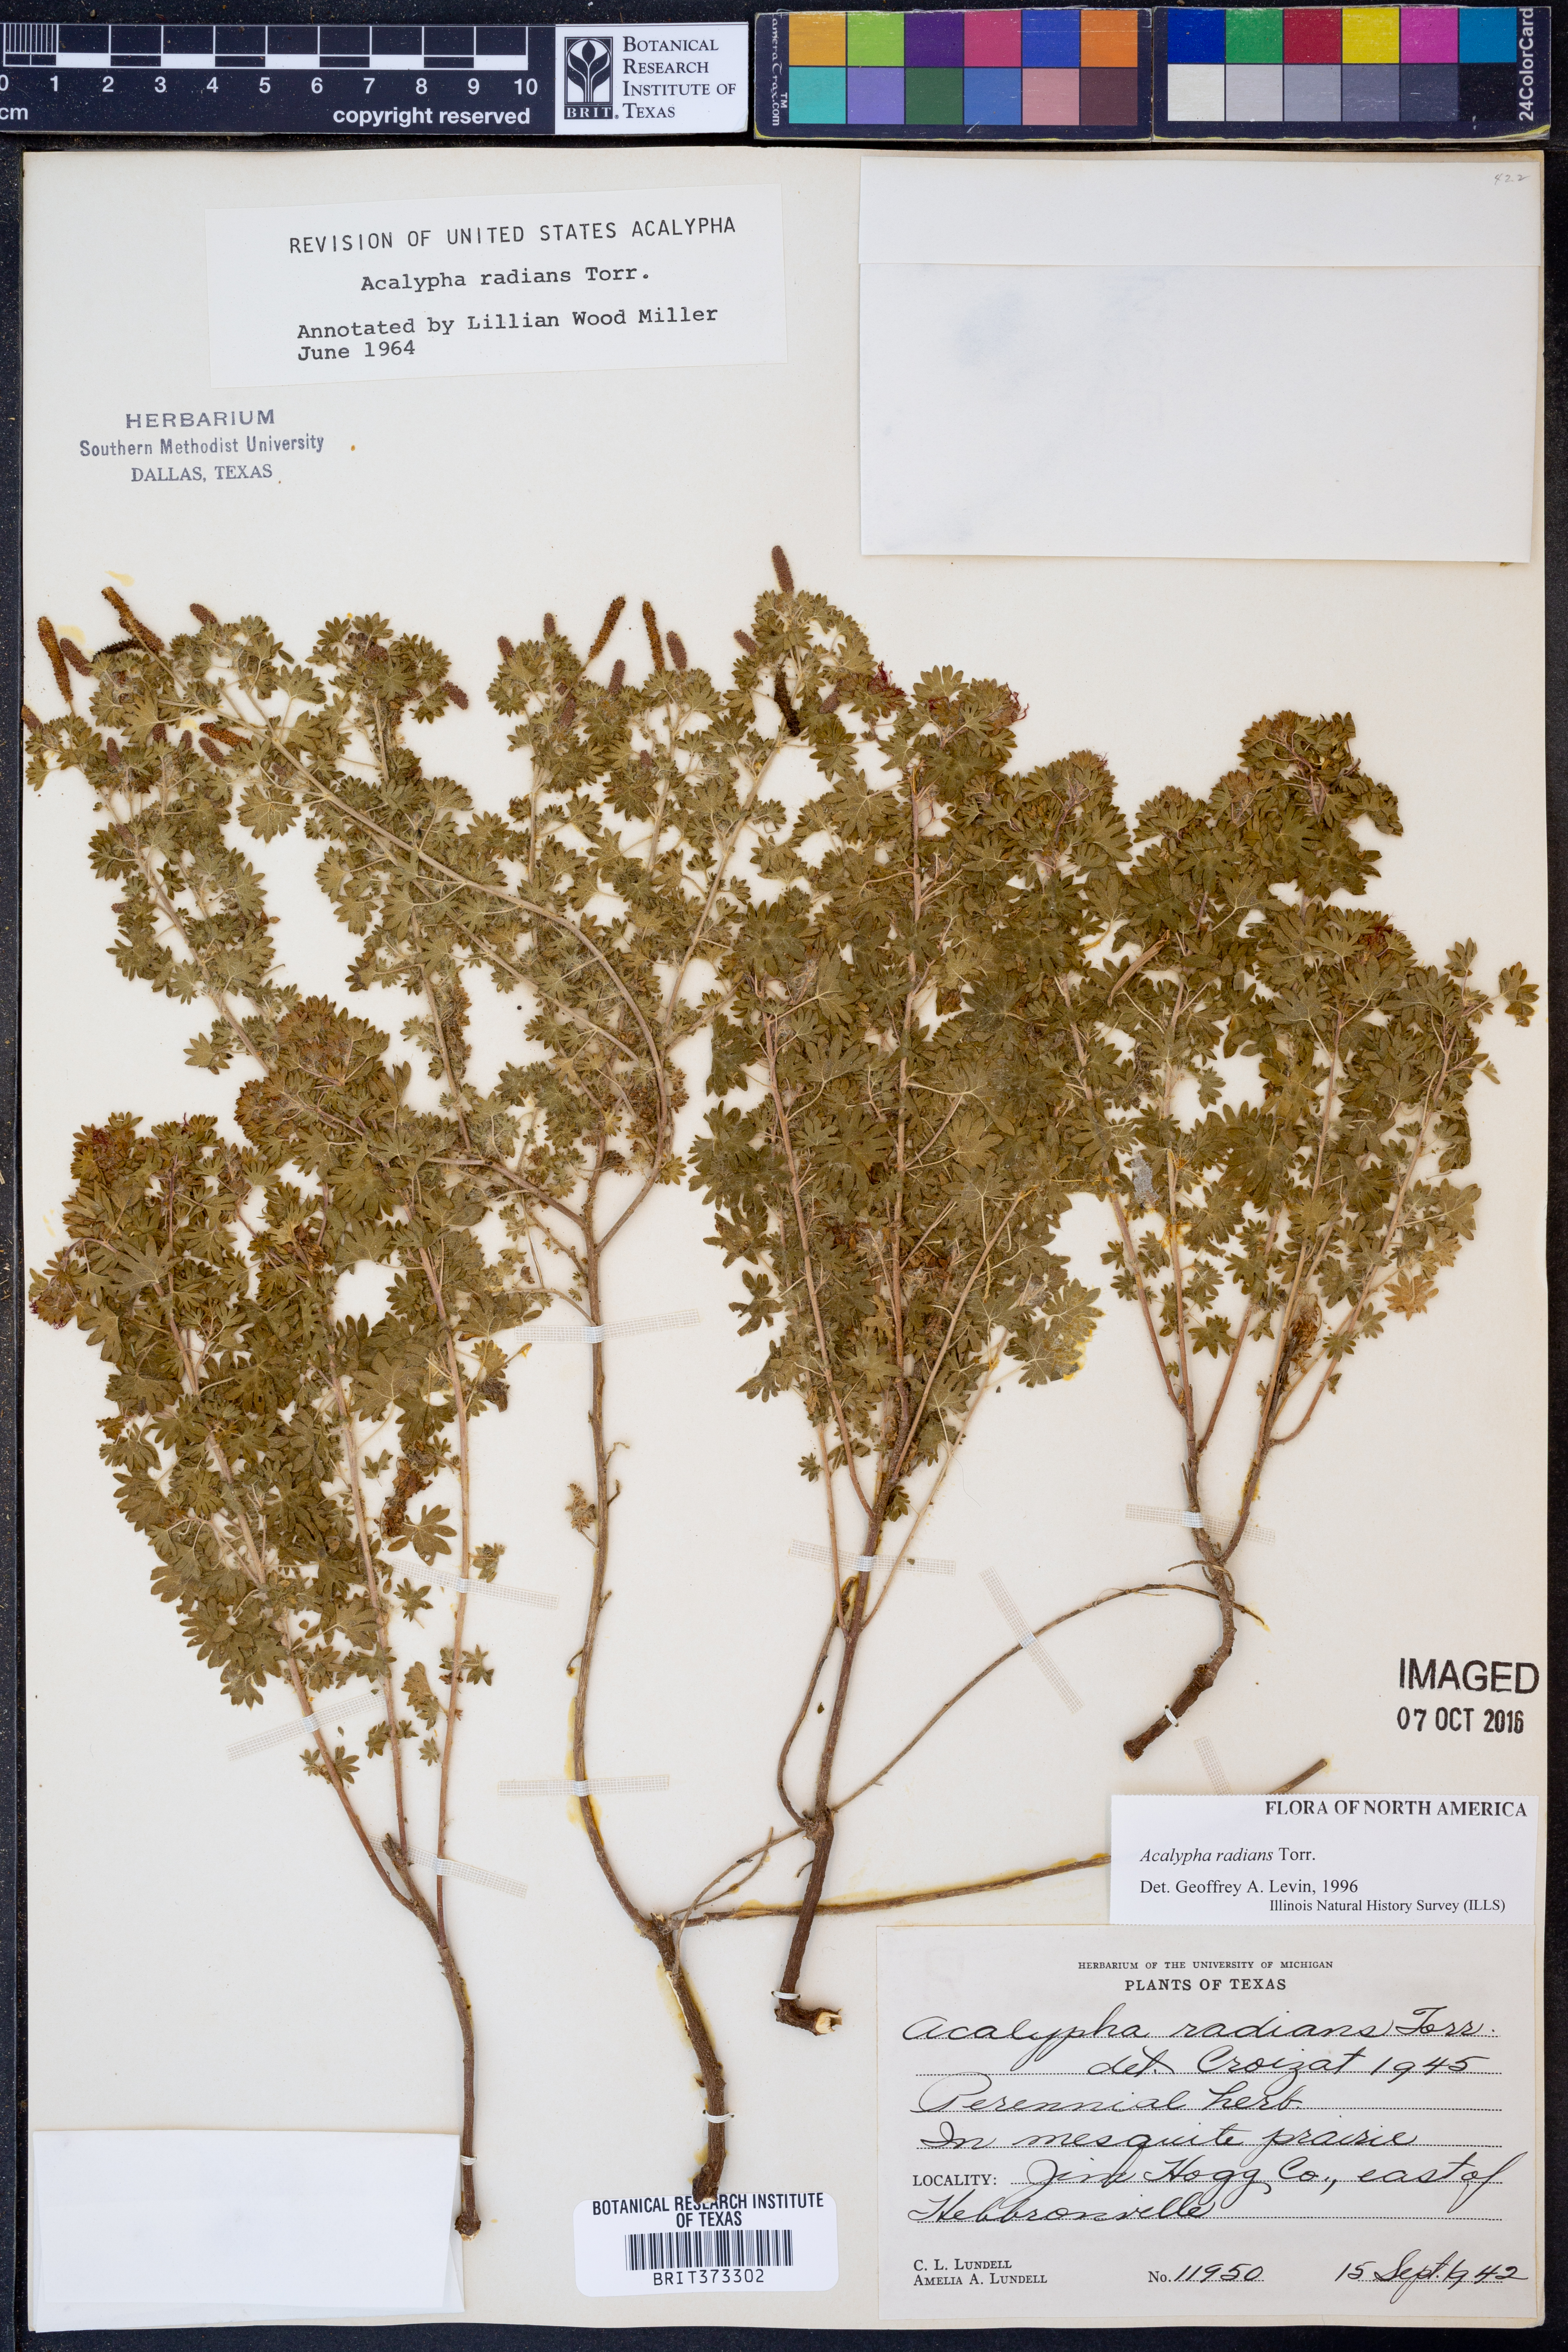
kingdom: Plantae
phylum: Tracheophyta
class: Magnoliopsida
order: Malpighiales
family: Euphorbiaceae
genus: Acalypha
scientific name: Acalypha radians
